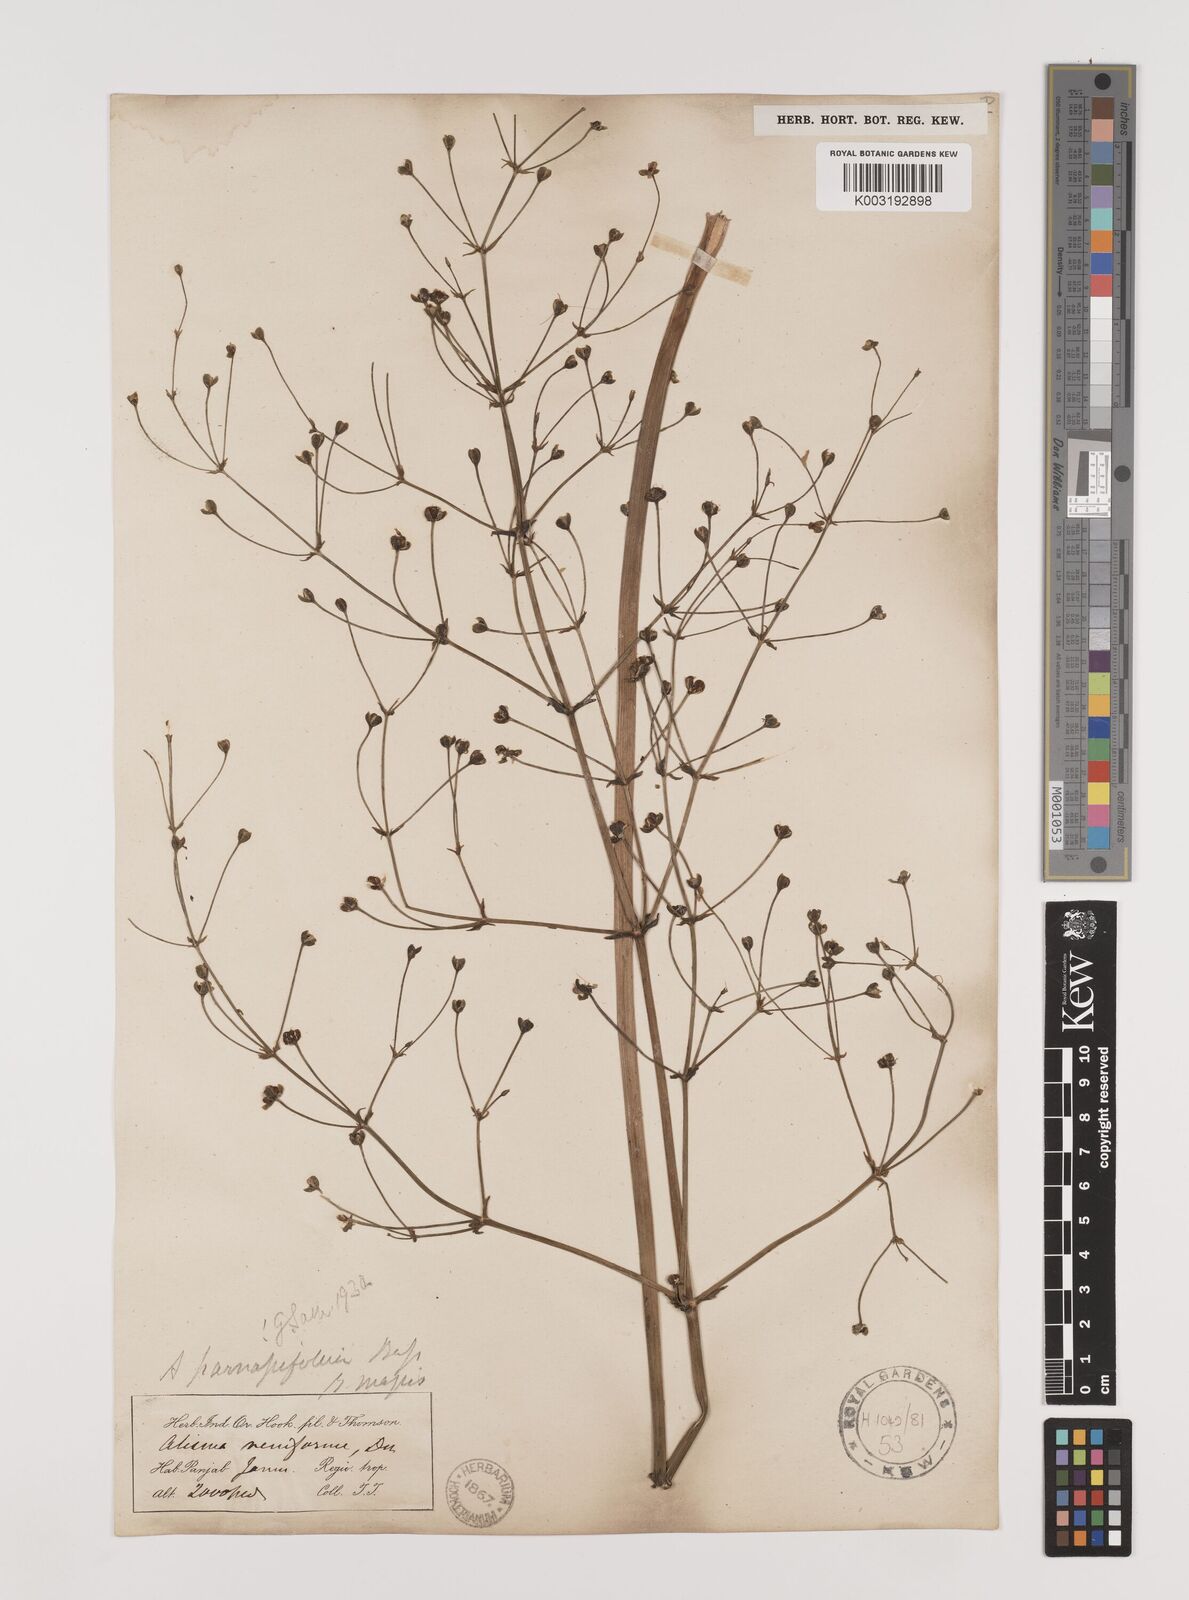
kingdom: Plantae
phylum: Tracheophyta
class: Liliopsida
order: Alismatales
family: Alismataceae
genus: Caldesia
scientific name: Caldesia parnassifolia
